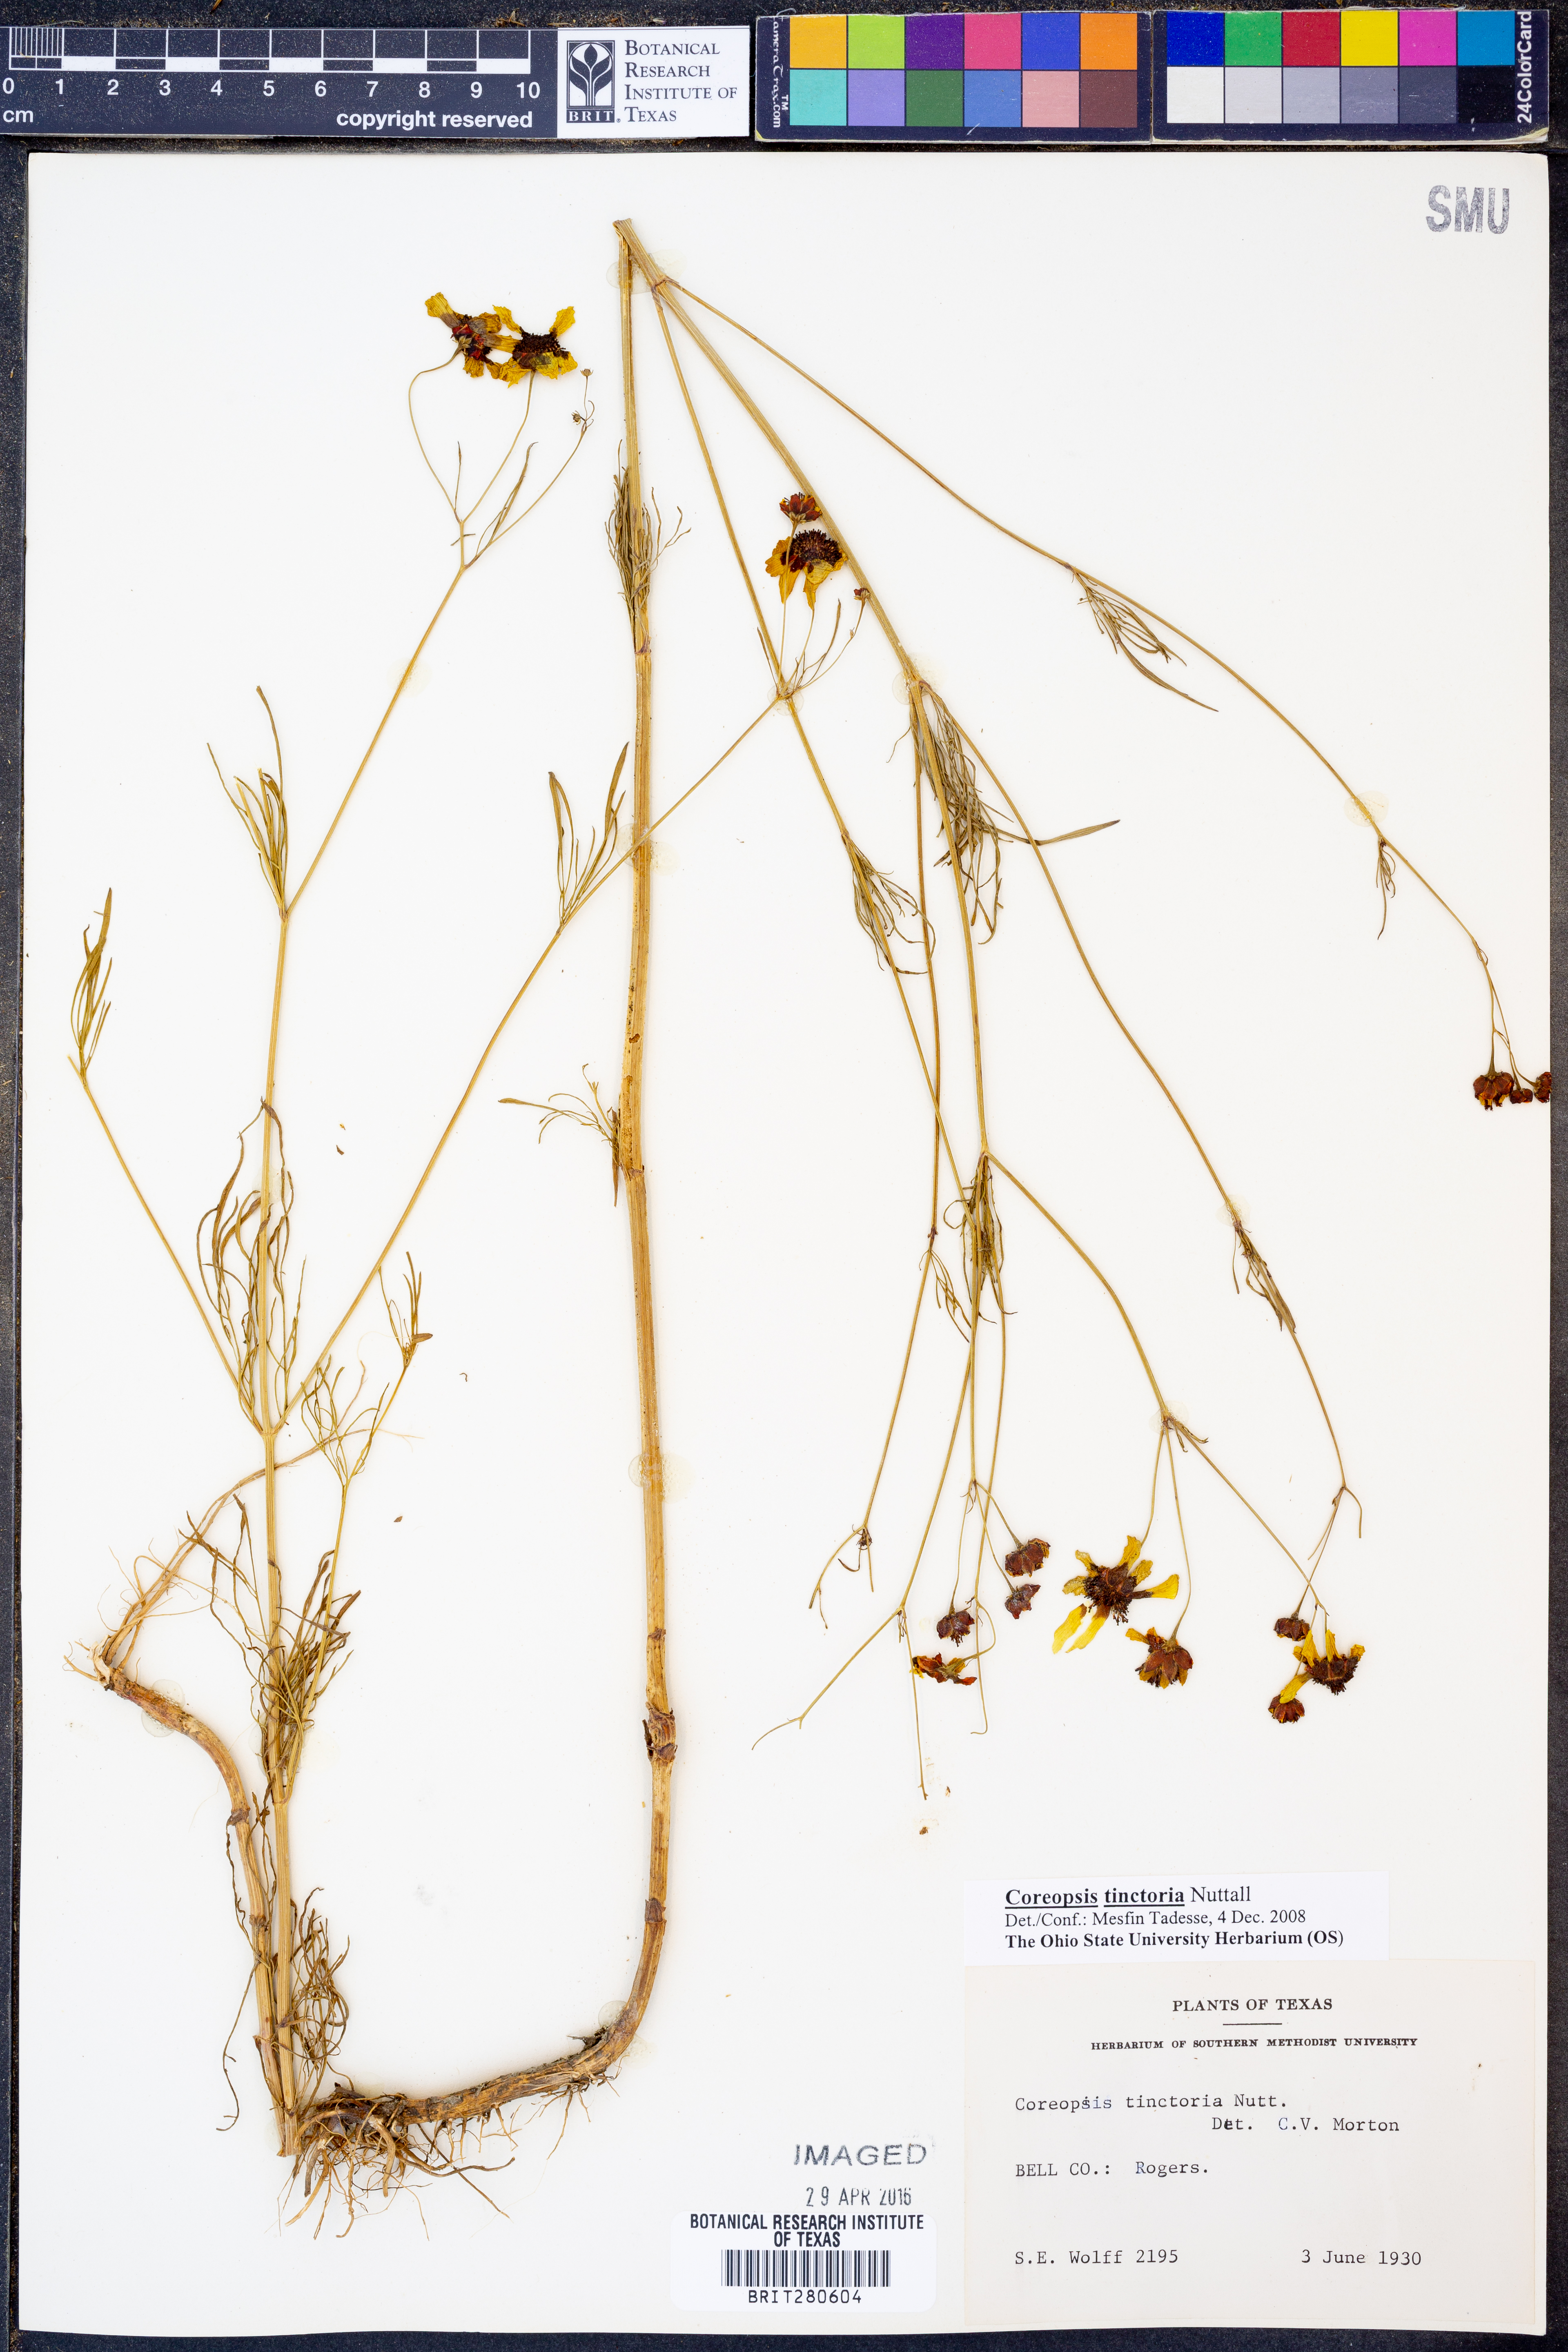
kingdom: Plantae
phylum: Tracheophyta
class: Magnoliopsida
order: Asterales
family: Asteraceae
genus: Coreopsis
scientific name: Coreopsis tinctoria
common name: Garden tickseed
